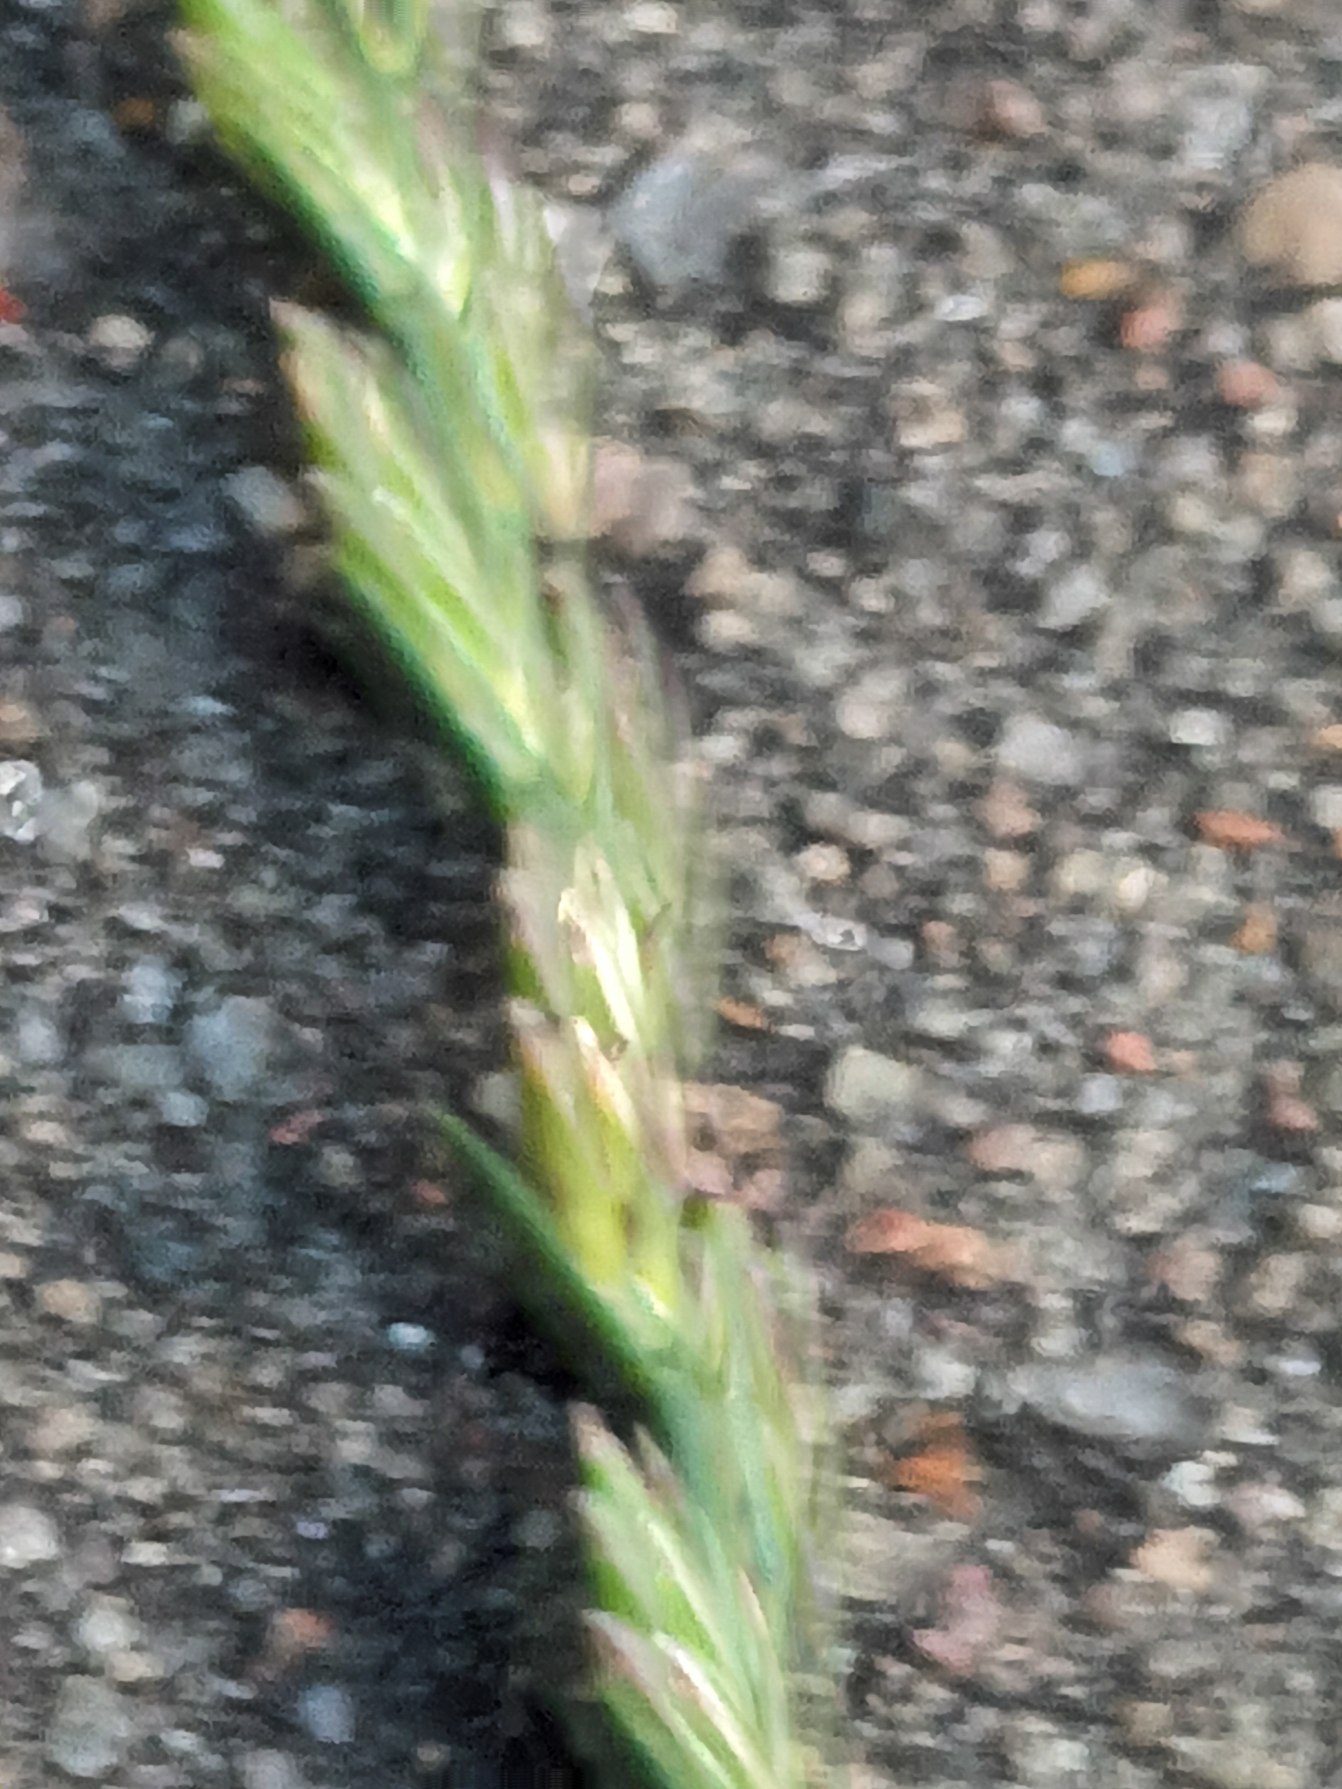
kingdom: Plantae
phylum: Tracheophyta
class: Liliopsida
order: Poales
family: Poaceae
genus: Lolium
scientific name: Lolium perenne
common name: Almindelig rajgræs
